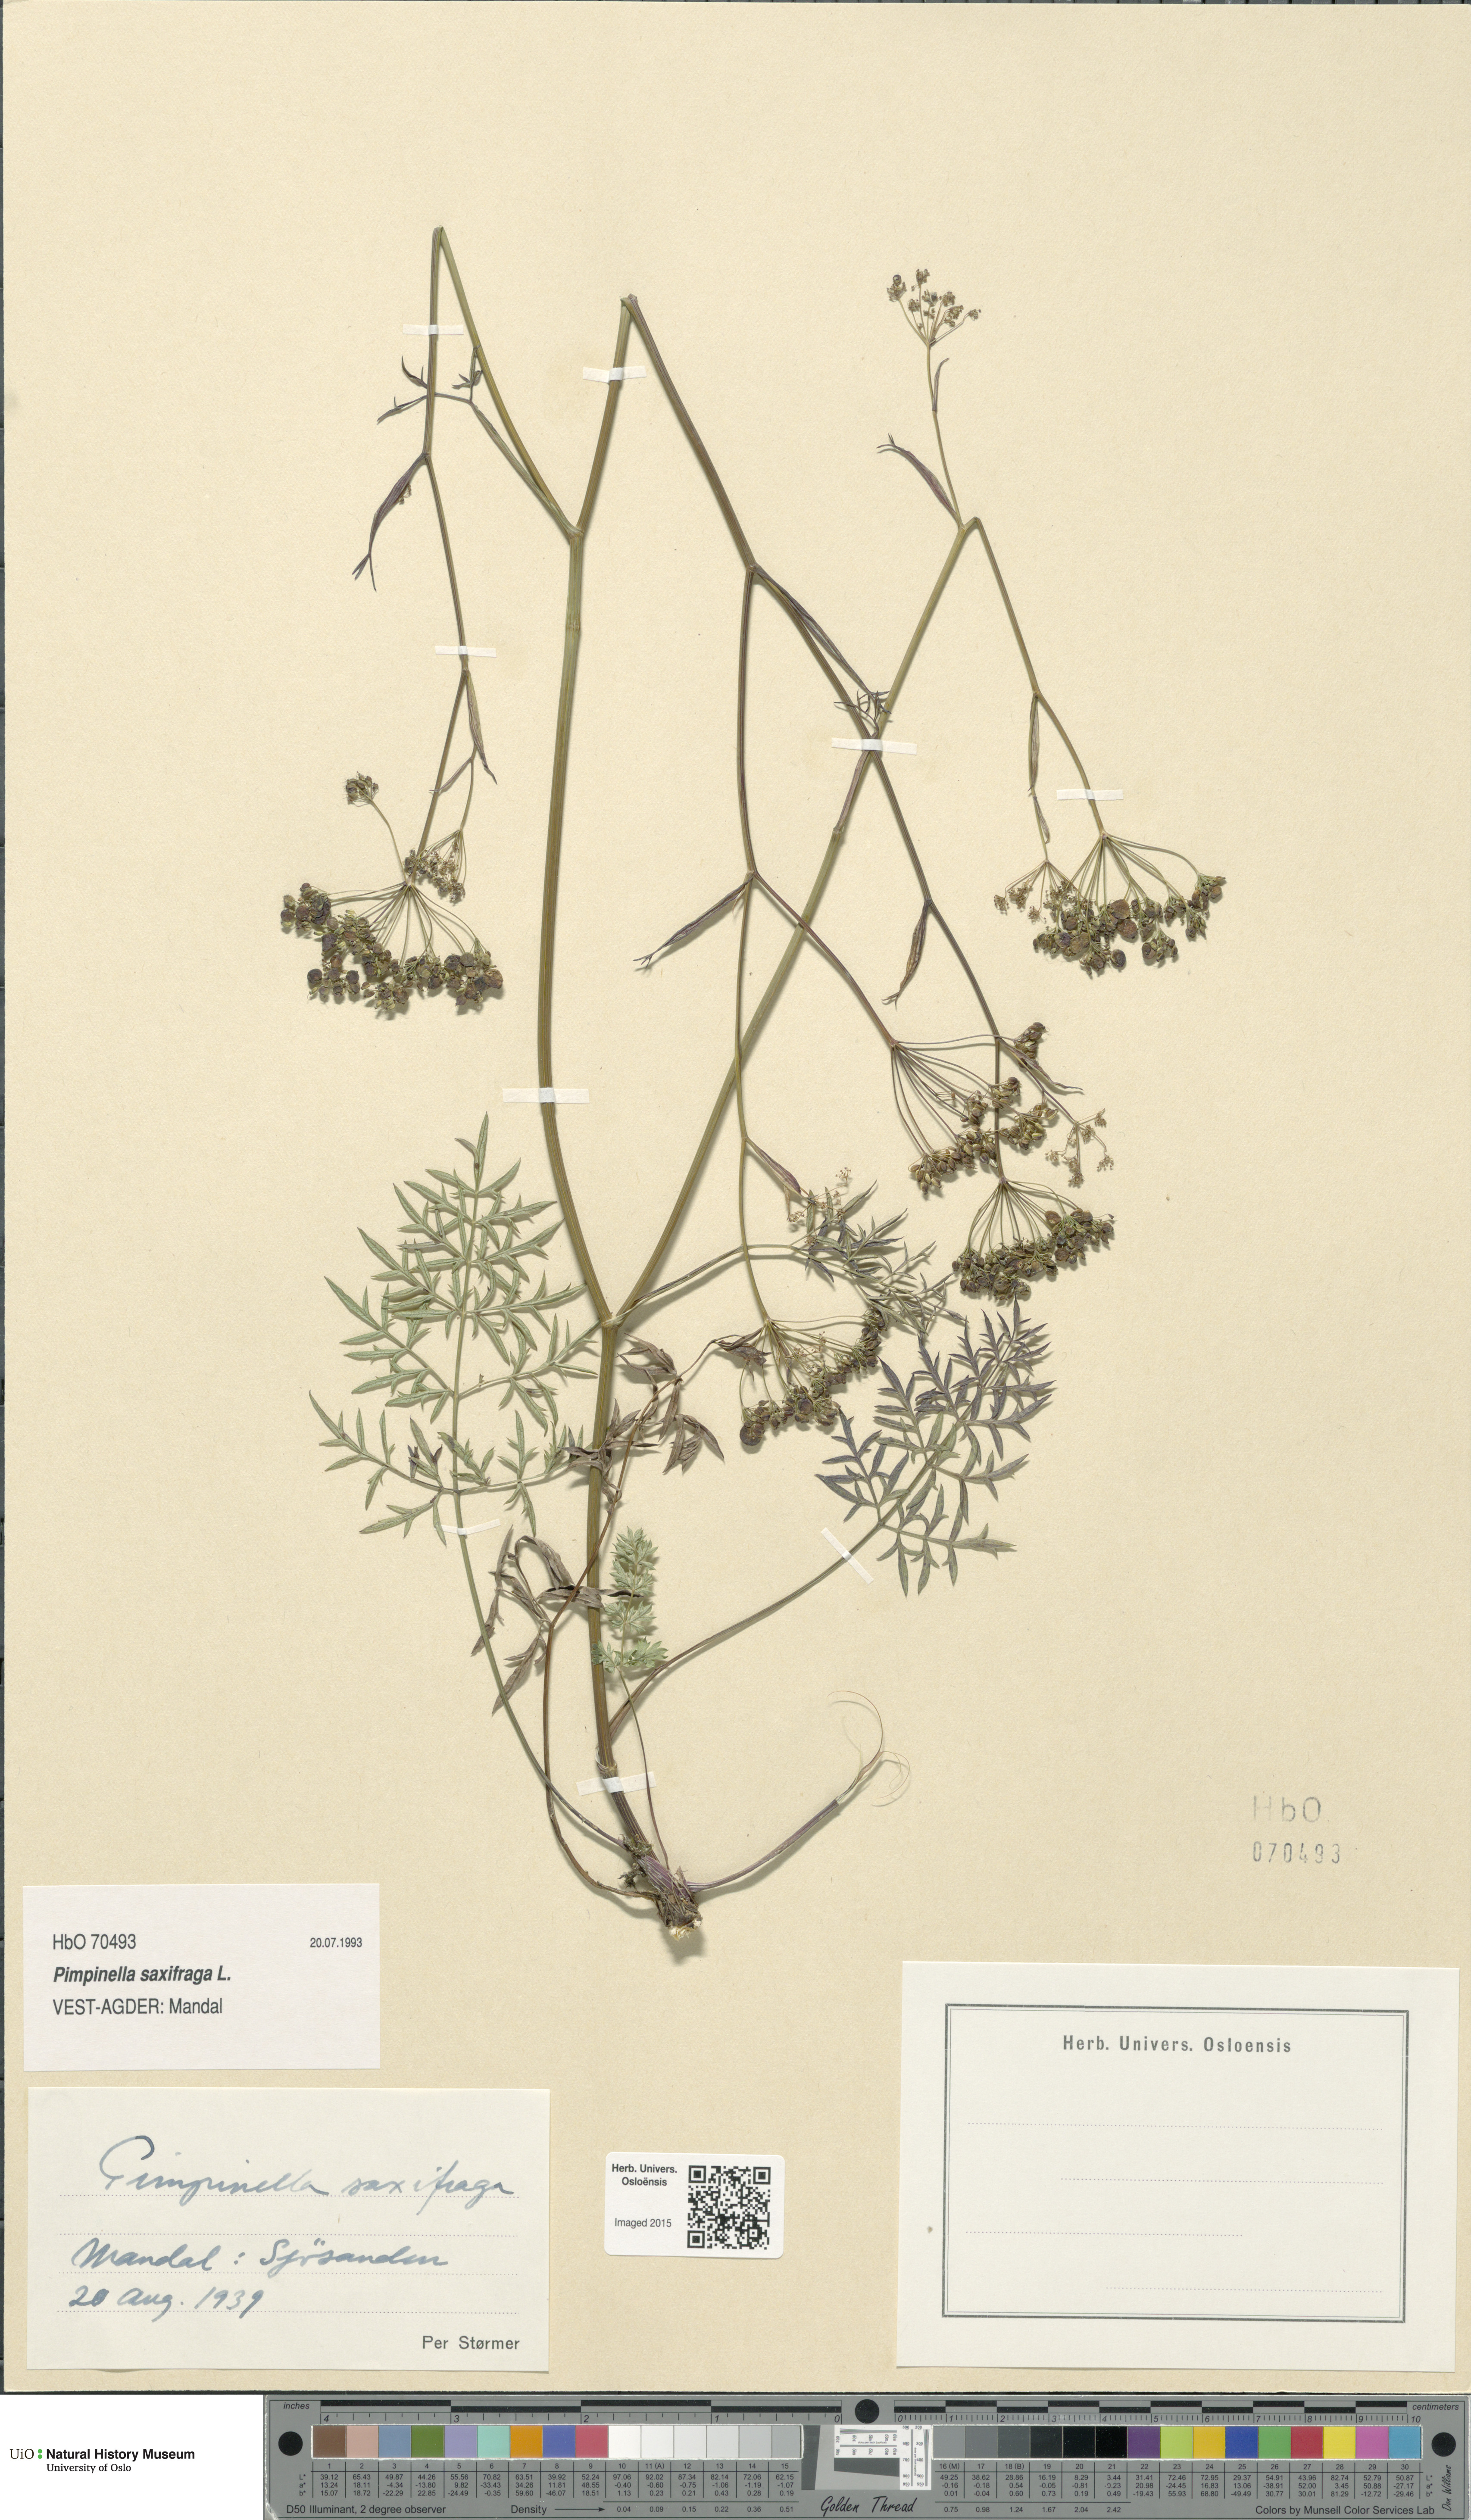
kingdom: Plantae
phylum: Tracheophyta
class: Magnoliopsida
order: Apiales
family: Apiaceae
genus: Pimpinella
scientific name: Pimpinella saxifraga
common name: Burnet-saxifrage
